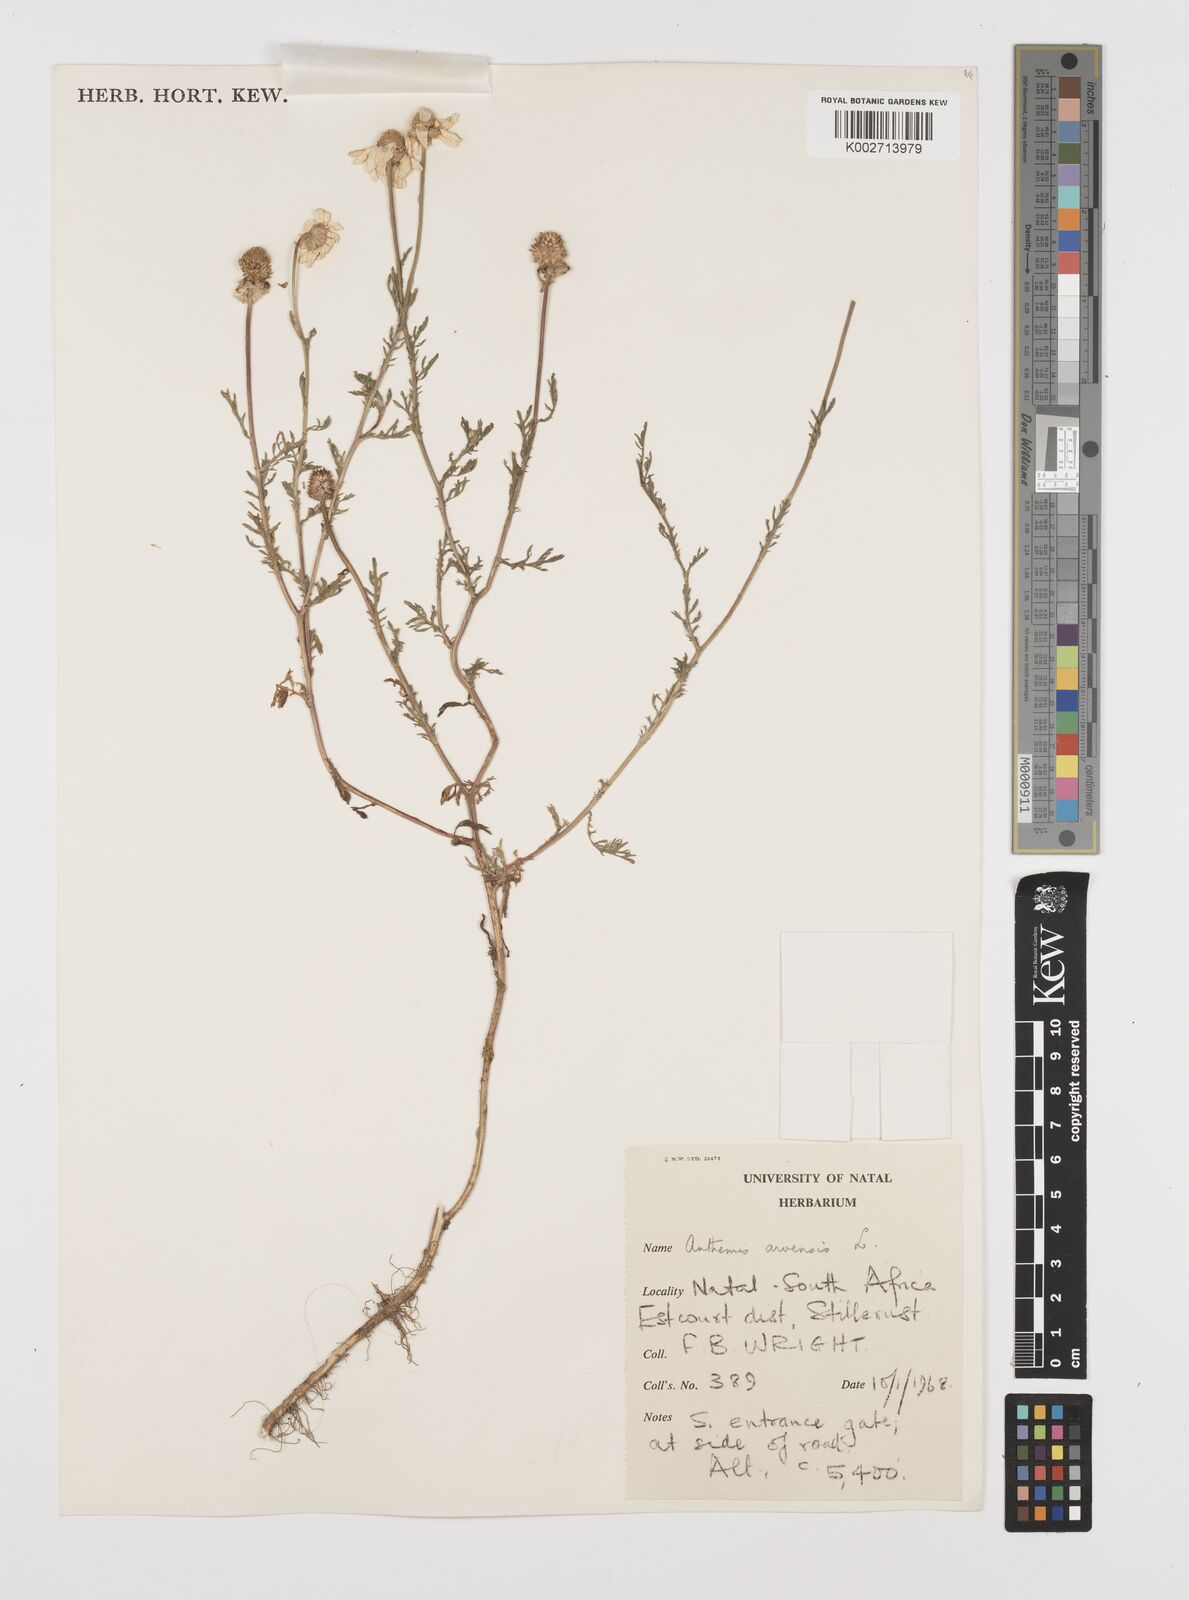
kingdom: Plantae
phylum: Tracheophyta
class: Magnoliopsida
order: Asterales
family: Asteraceae
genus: Anthemis
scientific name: Anthemis arvensis
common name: Corn chamomile
